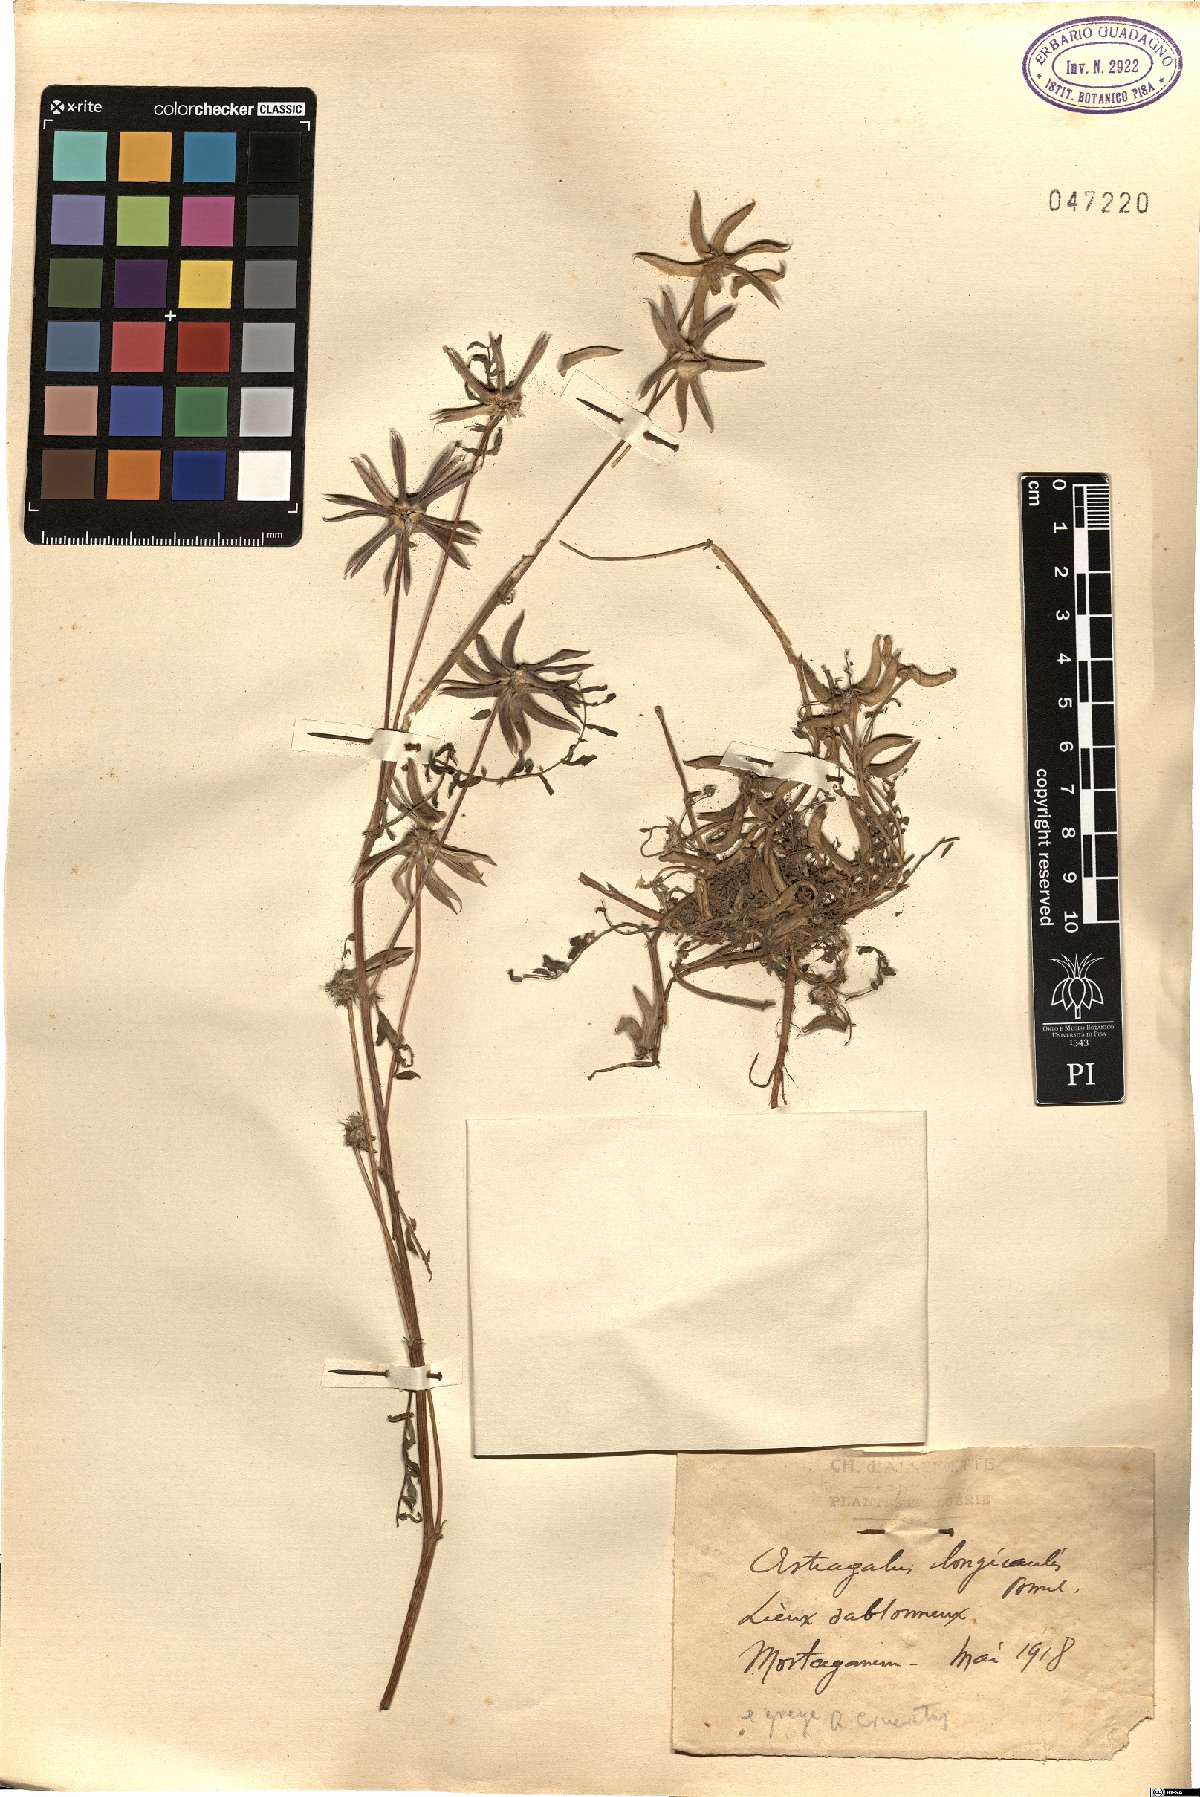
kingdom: Plantae
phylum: Tracheophyta
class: Magnoliopsida
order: Fabales
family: Fabaceae
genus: Astragalus
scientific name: Astragalus crenatus
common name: Milk vetch
